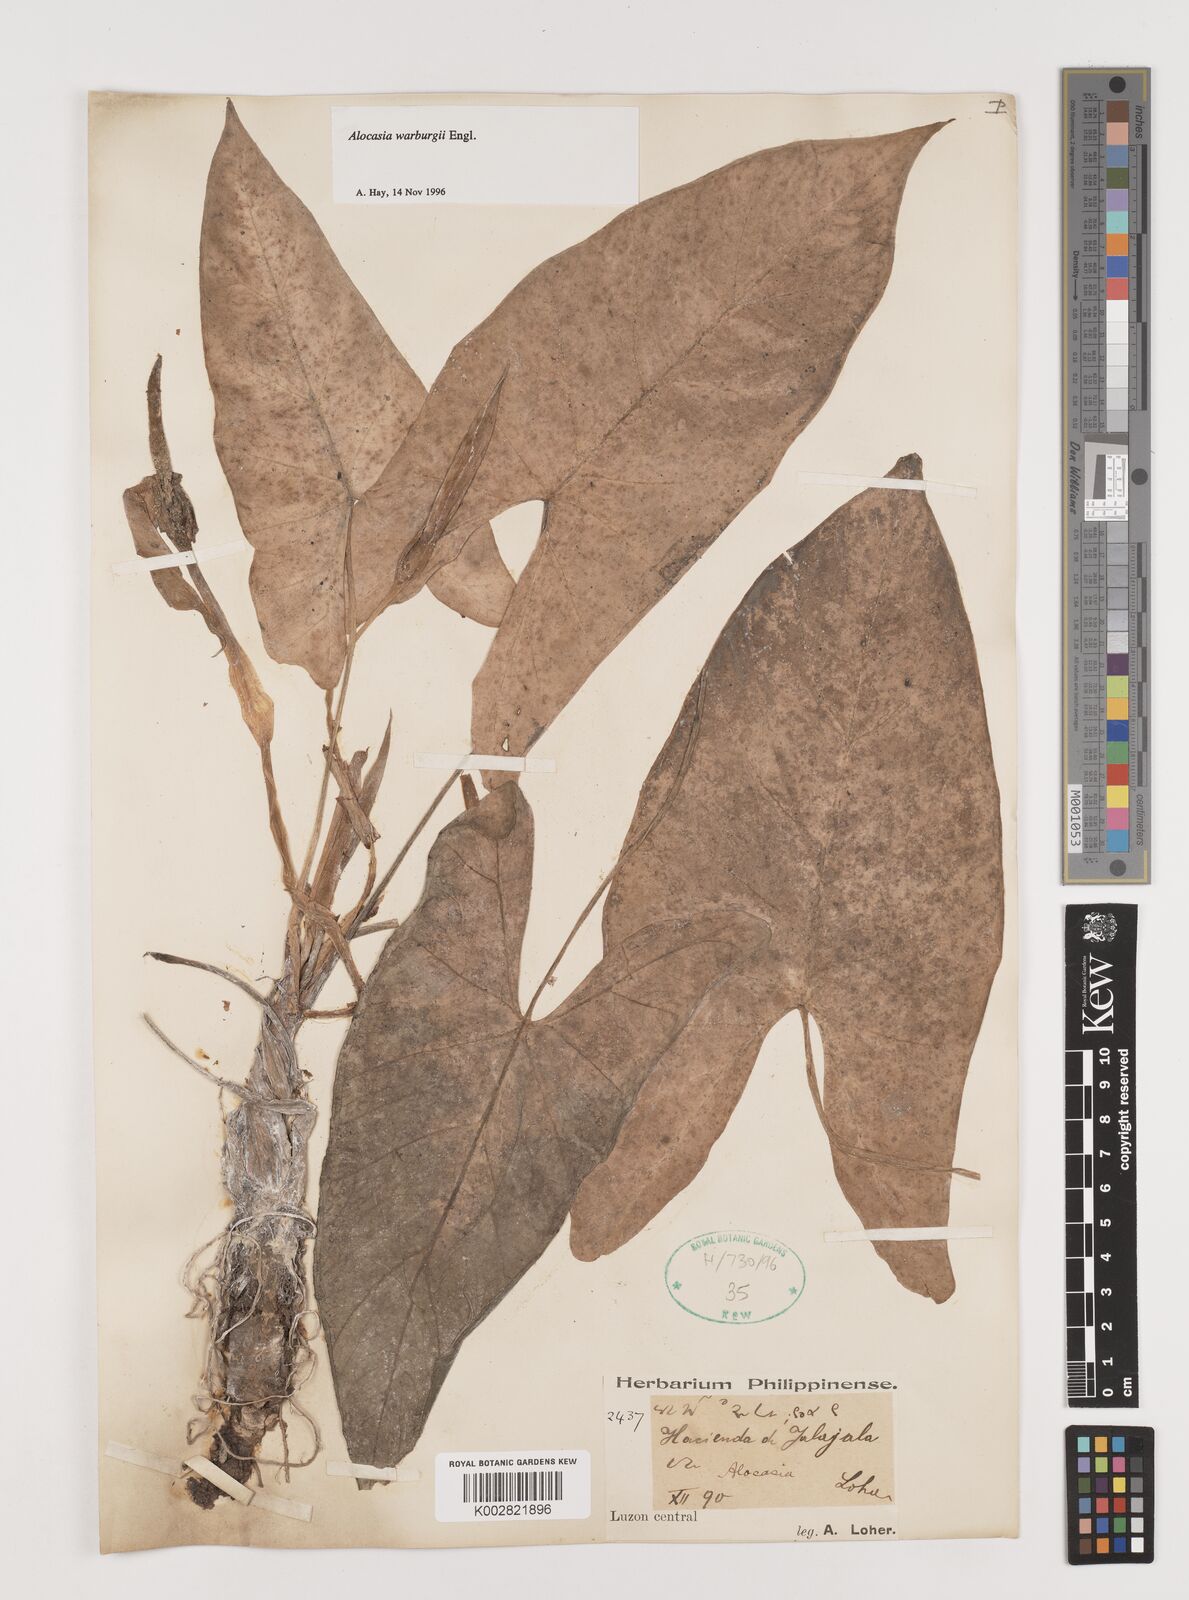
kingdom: Plantae
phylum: Tracheophyta
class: Liliopsida
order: Alismatales
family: Araceae
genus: Alocasia
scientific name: Alocasia heterophylla
